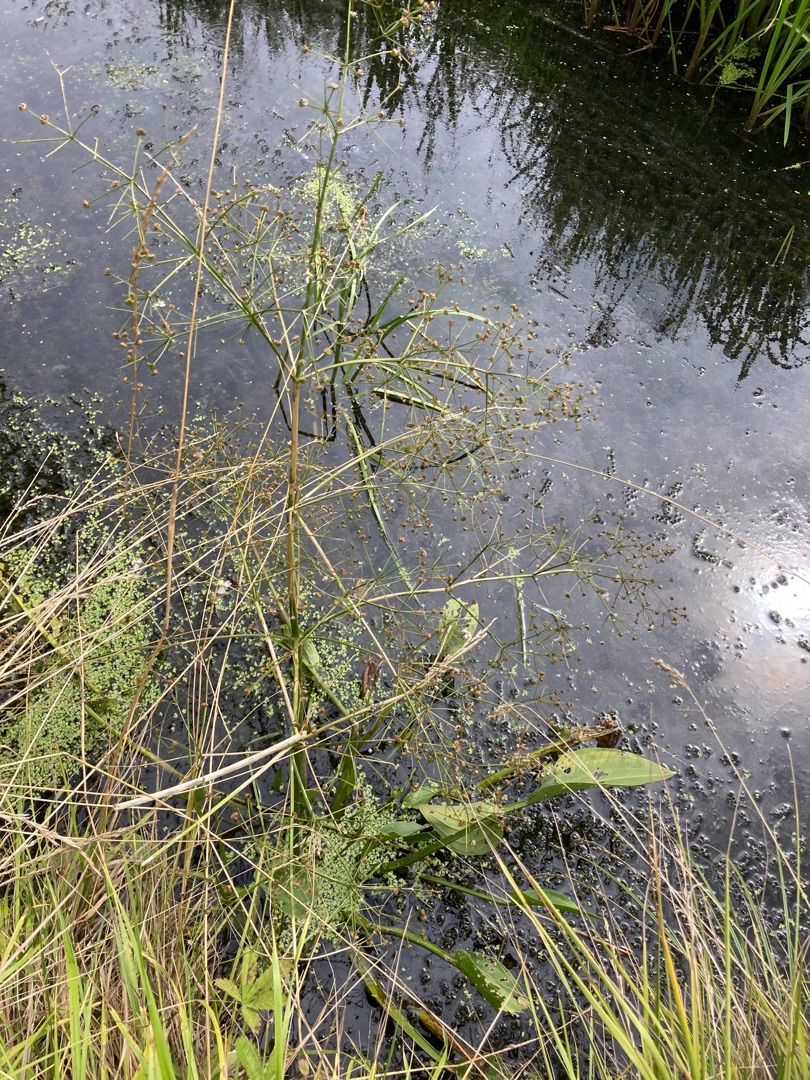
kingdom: Plantae
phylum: Tracheophyta
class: Liliopsida
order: Alismatales
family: Alismataceae
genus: Alisma
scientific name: Alisma plantago-aquatica
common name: Vejbred-skeblad
